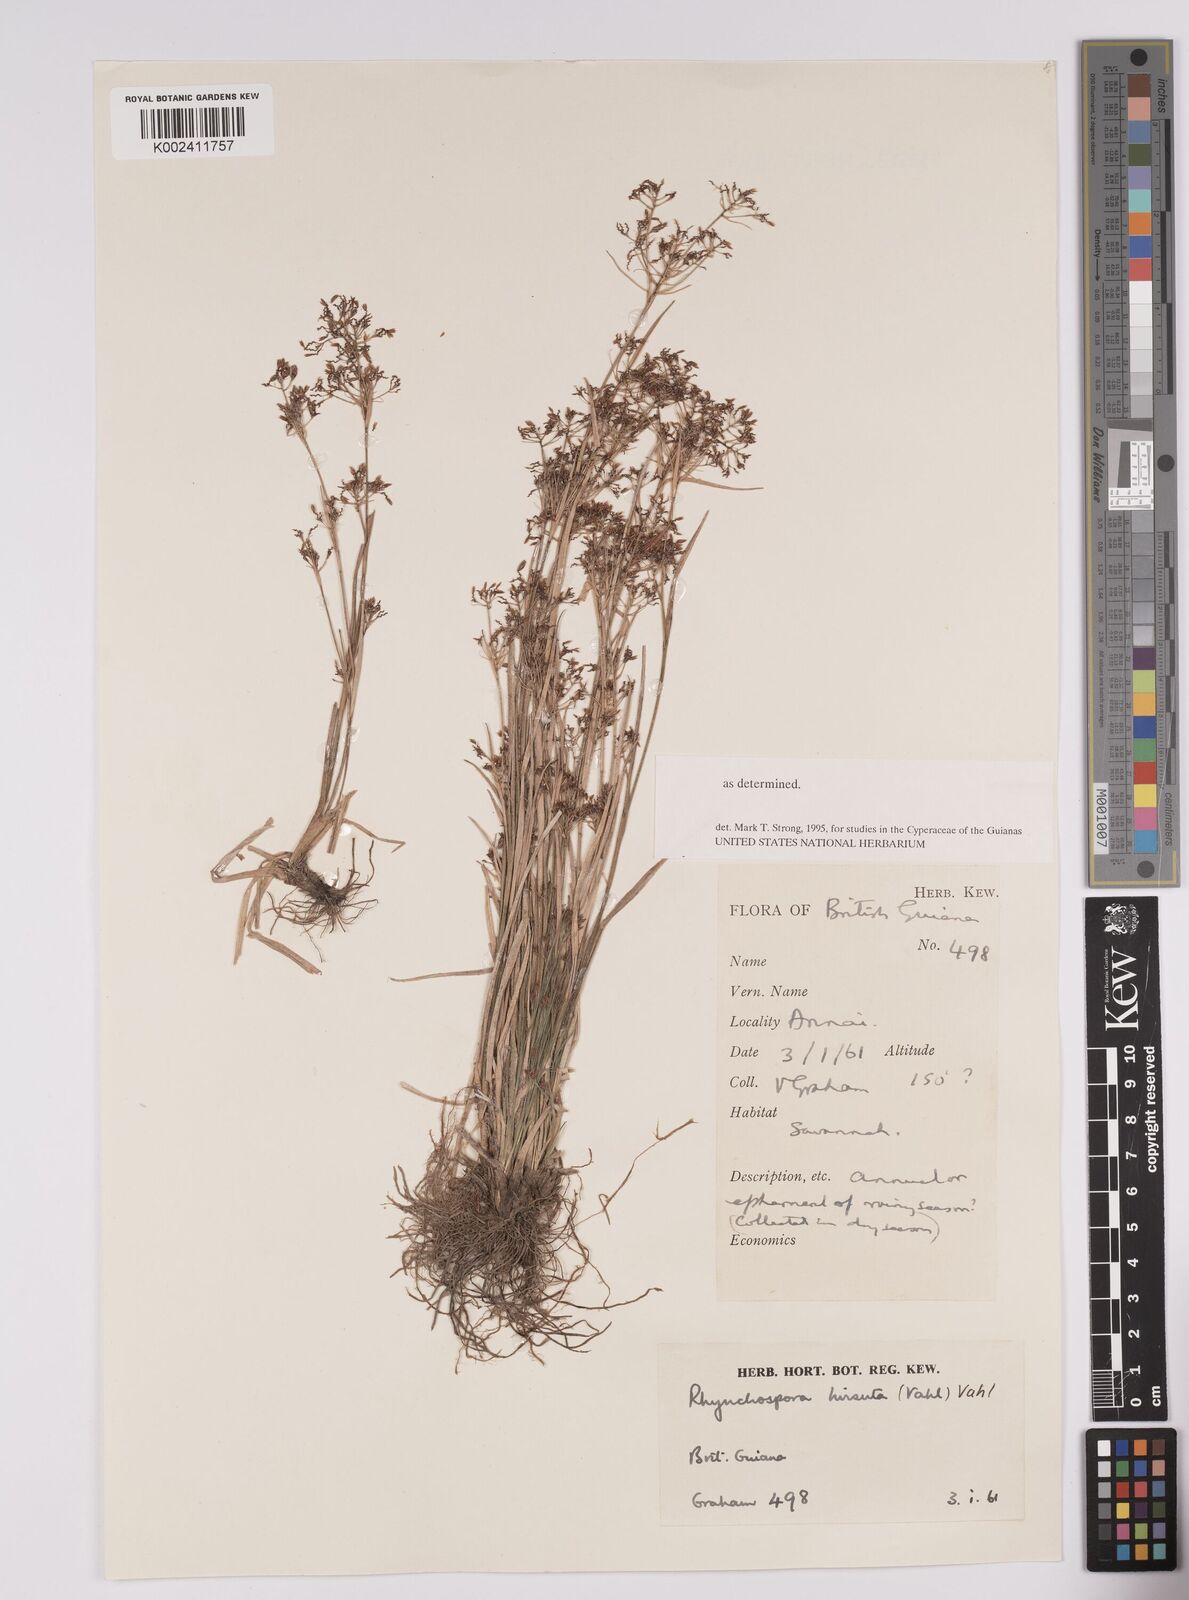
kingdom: Plantae
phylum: Tracheophyta
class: Liliopsida
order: Poales
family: Cyperaceae
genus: Rhynchospora
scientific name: Rhynchospora hirsuta
